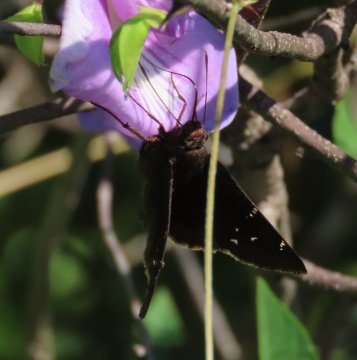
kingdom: Animalia
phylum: Arthropoda
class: Insecta
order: Lepidoptera
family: Hesperiidae
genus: Autochton
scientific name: Autochton
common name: Northern Cloudywing
